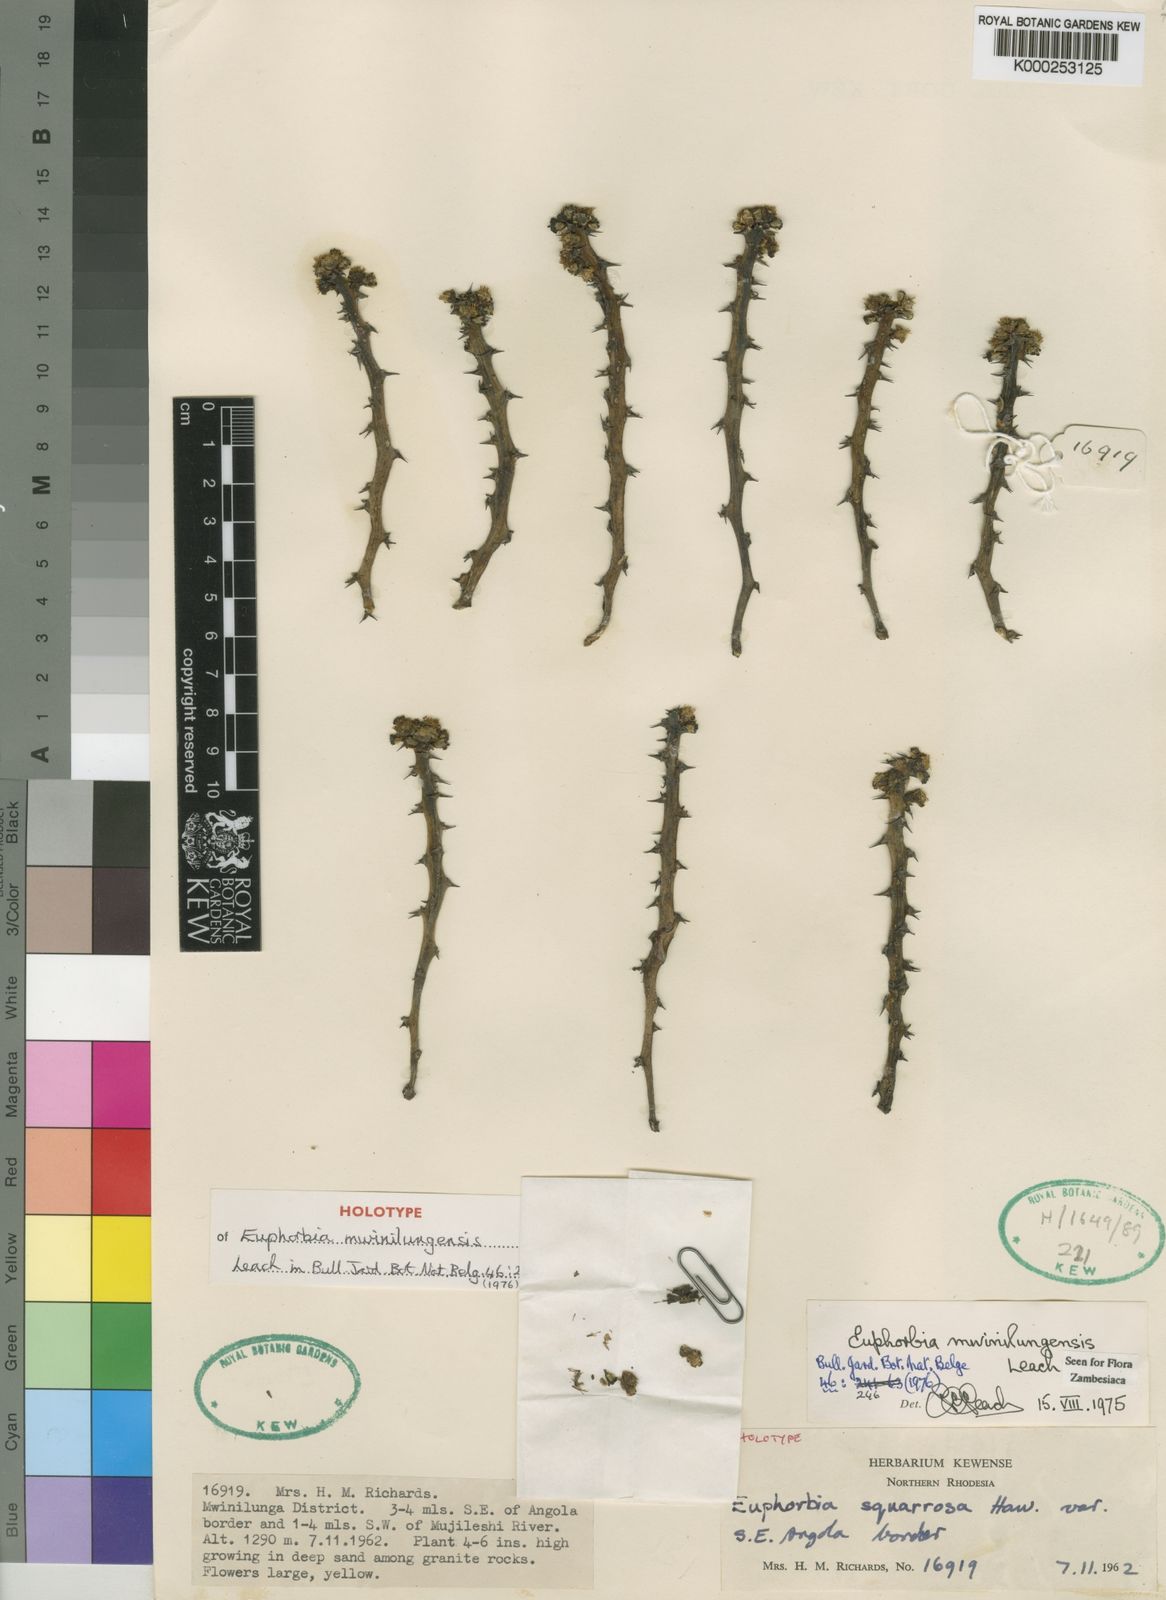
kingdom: Plantae
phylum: Tracheophyta
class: Magnoliopsida
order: Malpighiales
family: Euphorbiaceae
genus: Euphorbia
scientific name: Euphorbia mwinilungensis
